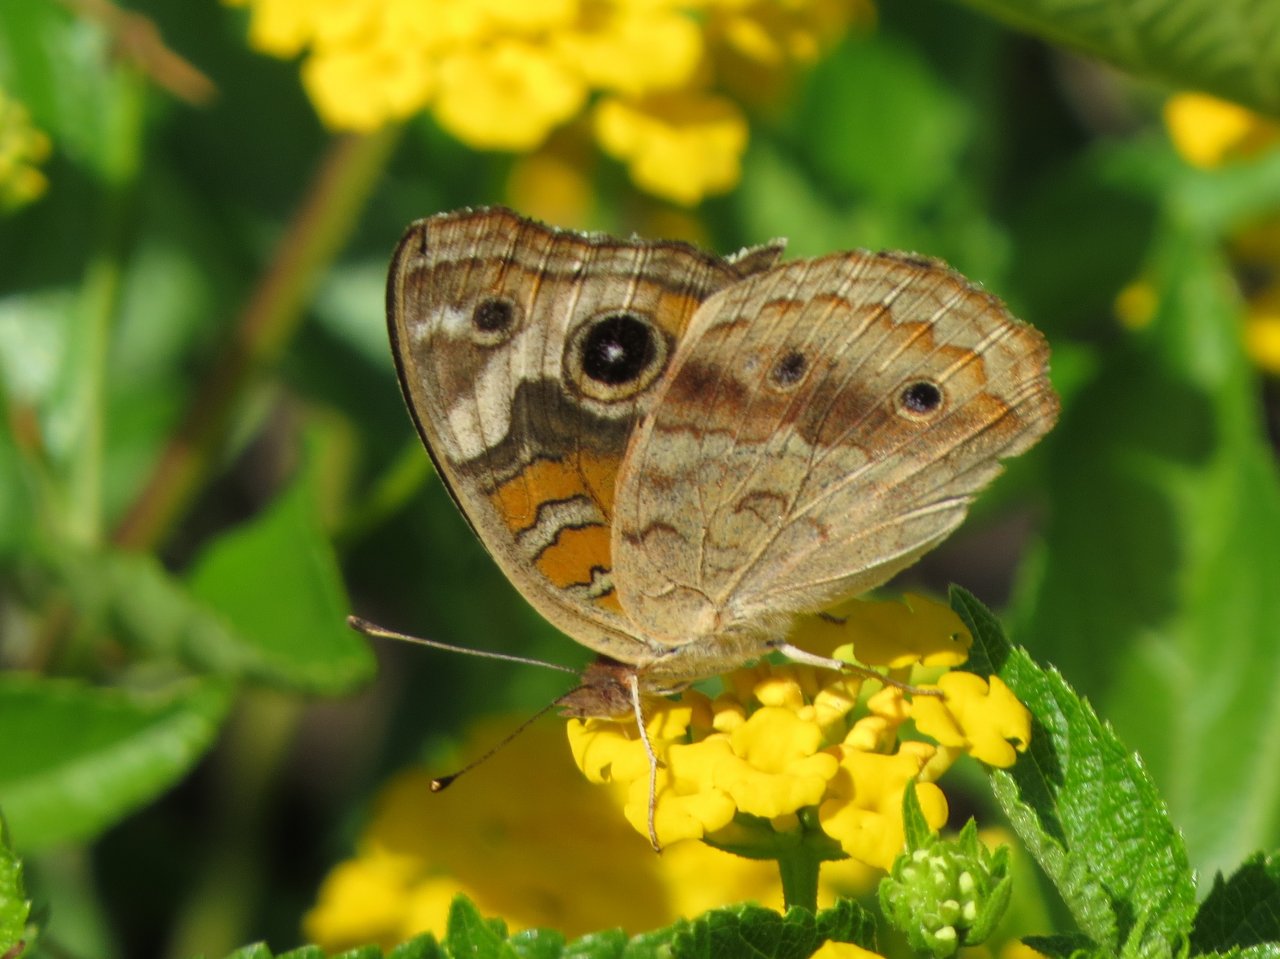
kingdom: Animalia
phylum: Arthropoda
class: Insecta
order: Lepidoptera
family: Nymphalidae
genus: Junonia
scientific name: Junonia coenia
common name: Common Buckeye
